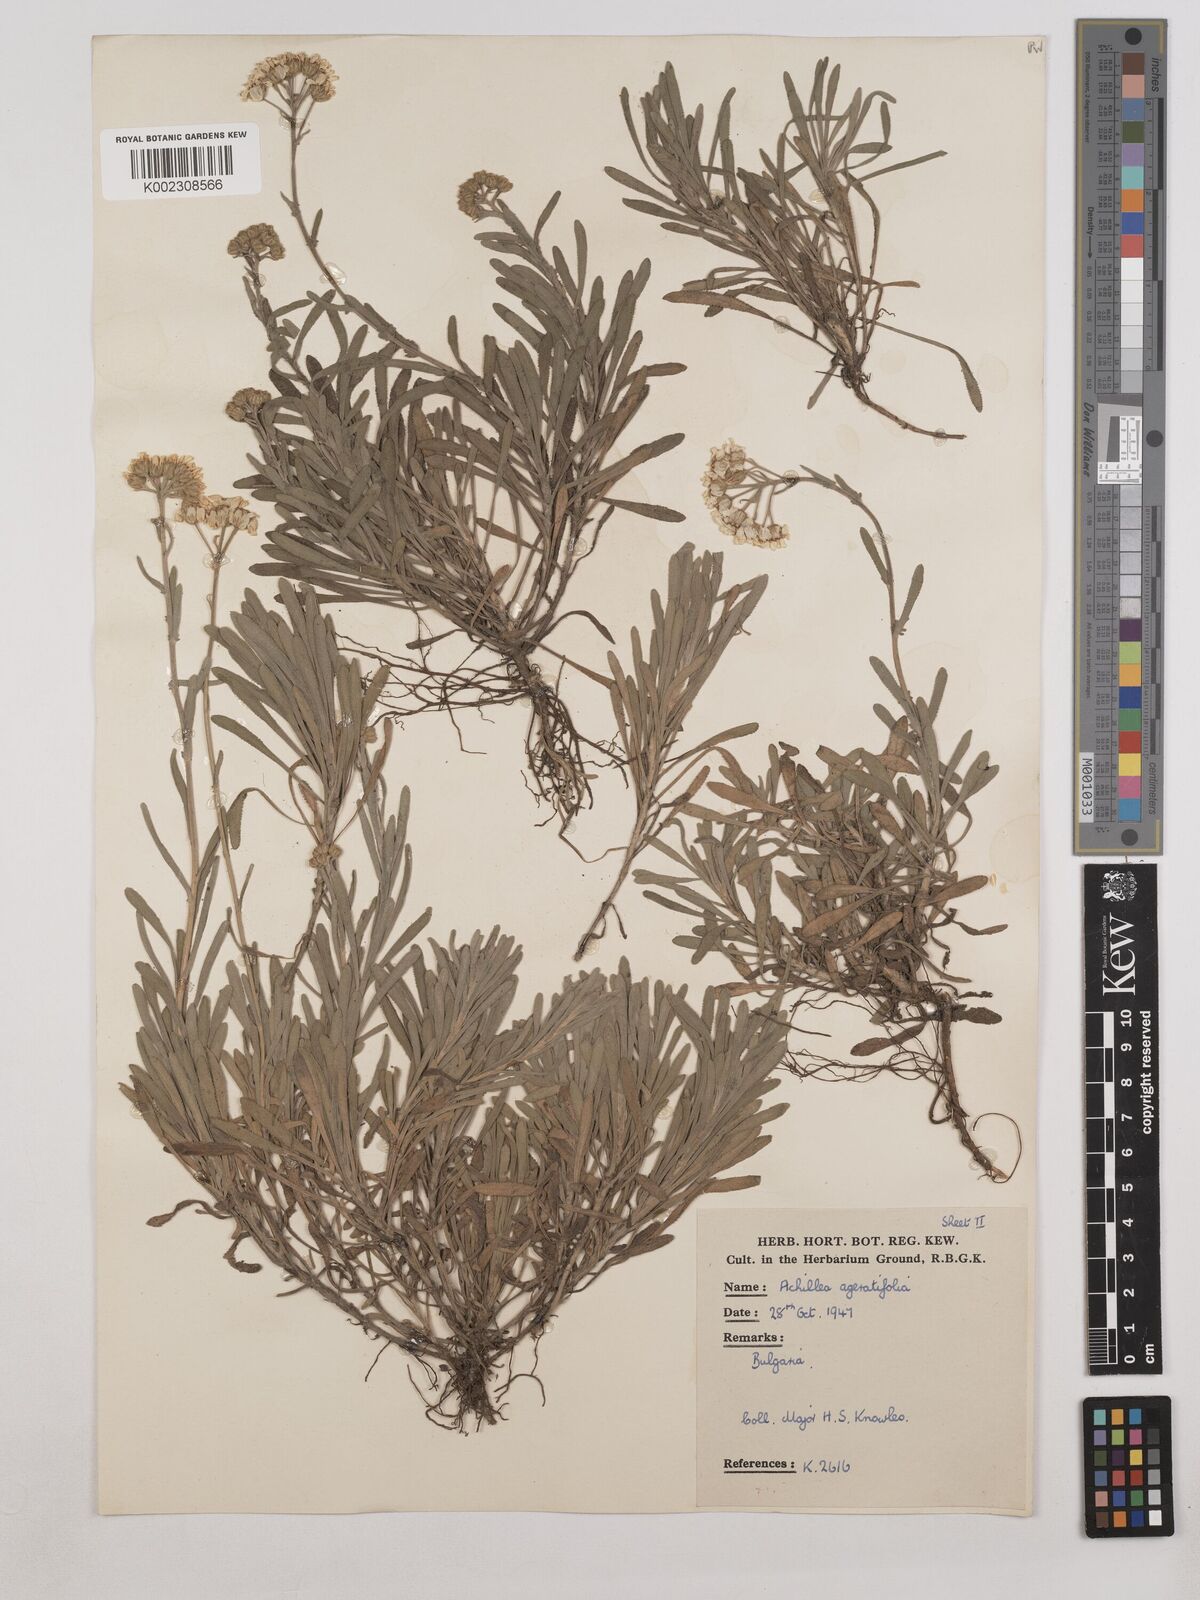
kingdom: Plantae
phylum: Tracheophyta
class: Magnoliopsida
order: Asterales
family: Asteraceae
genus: Achillea
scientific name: Achillea ageratifolia
